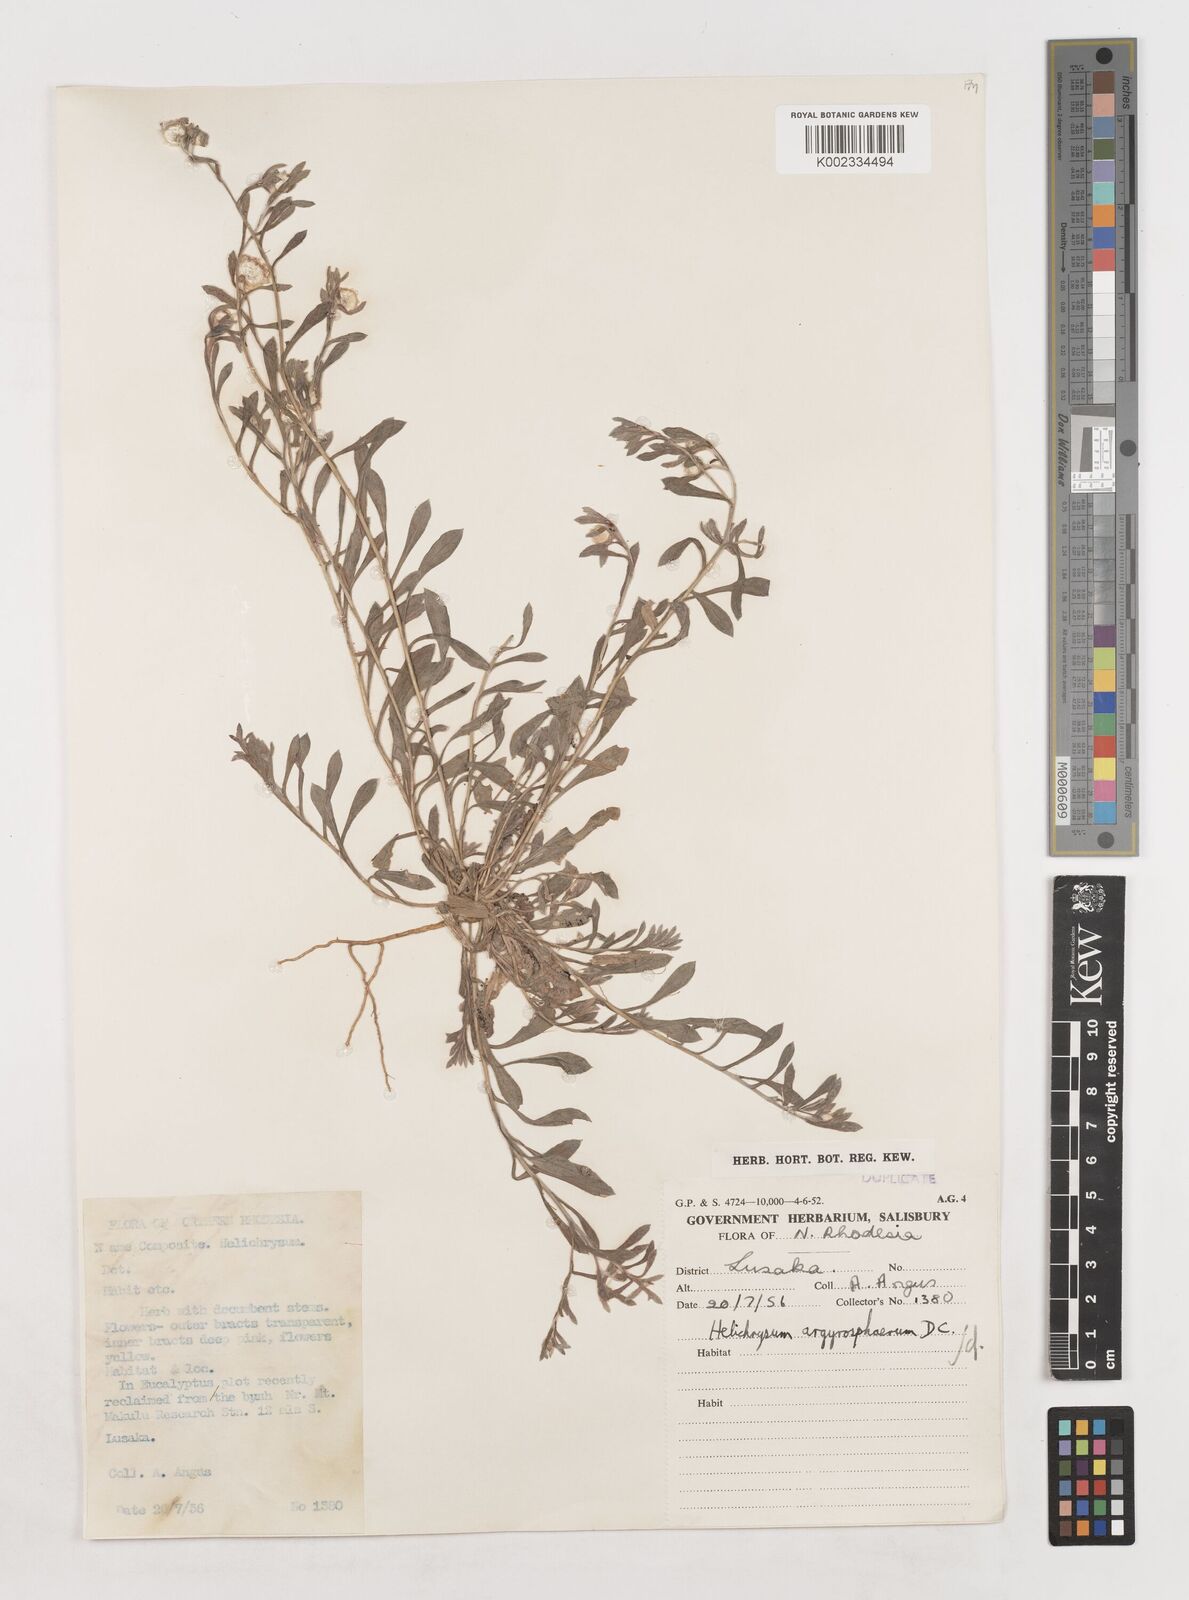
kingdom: Plantae
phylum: Tracheophyta
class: Magnoliopsida
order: Asterales
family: Asteraceae
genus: Helichrysum
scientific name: Helichrysum argyrosphaerum
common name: Wild everlasting
